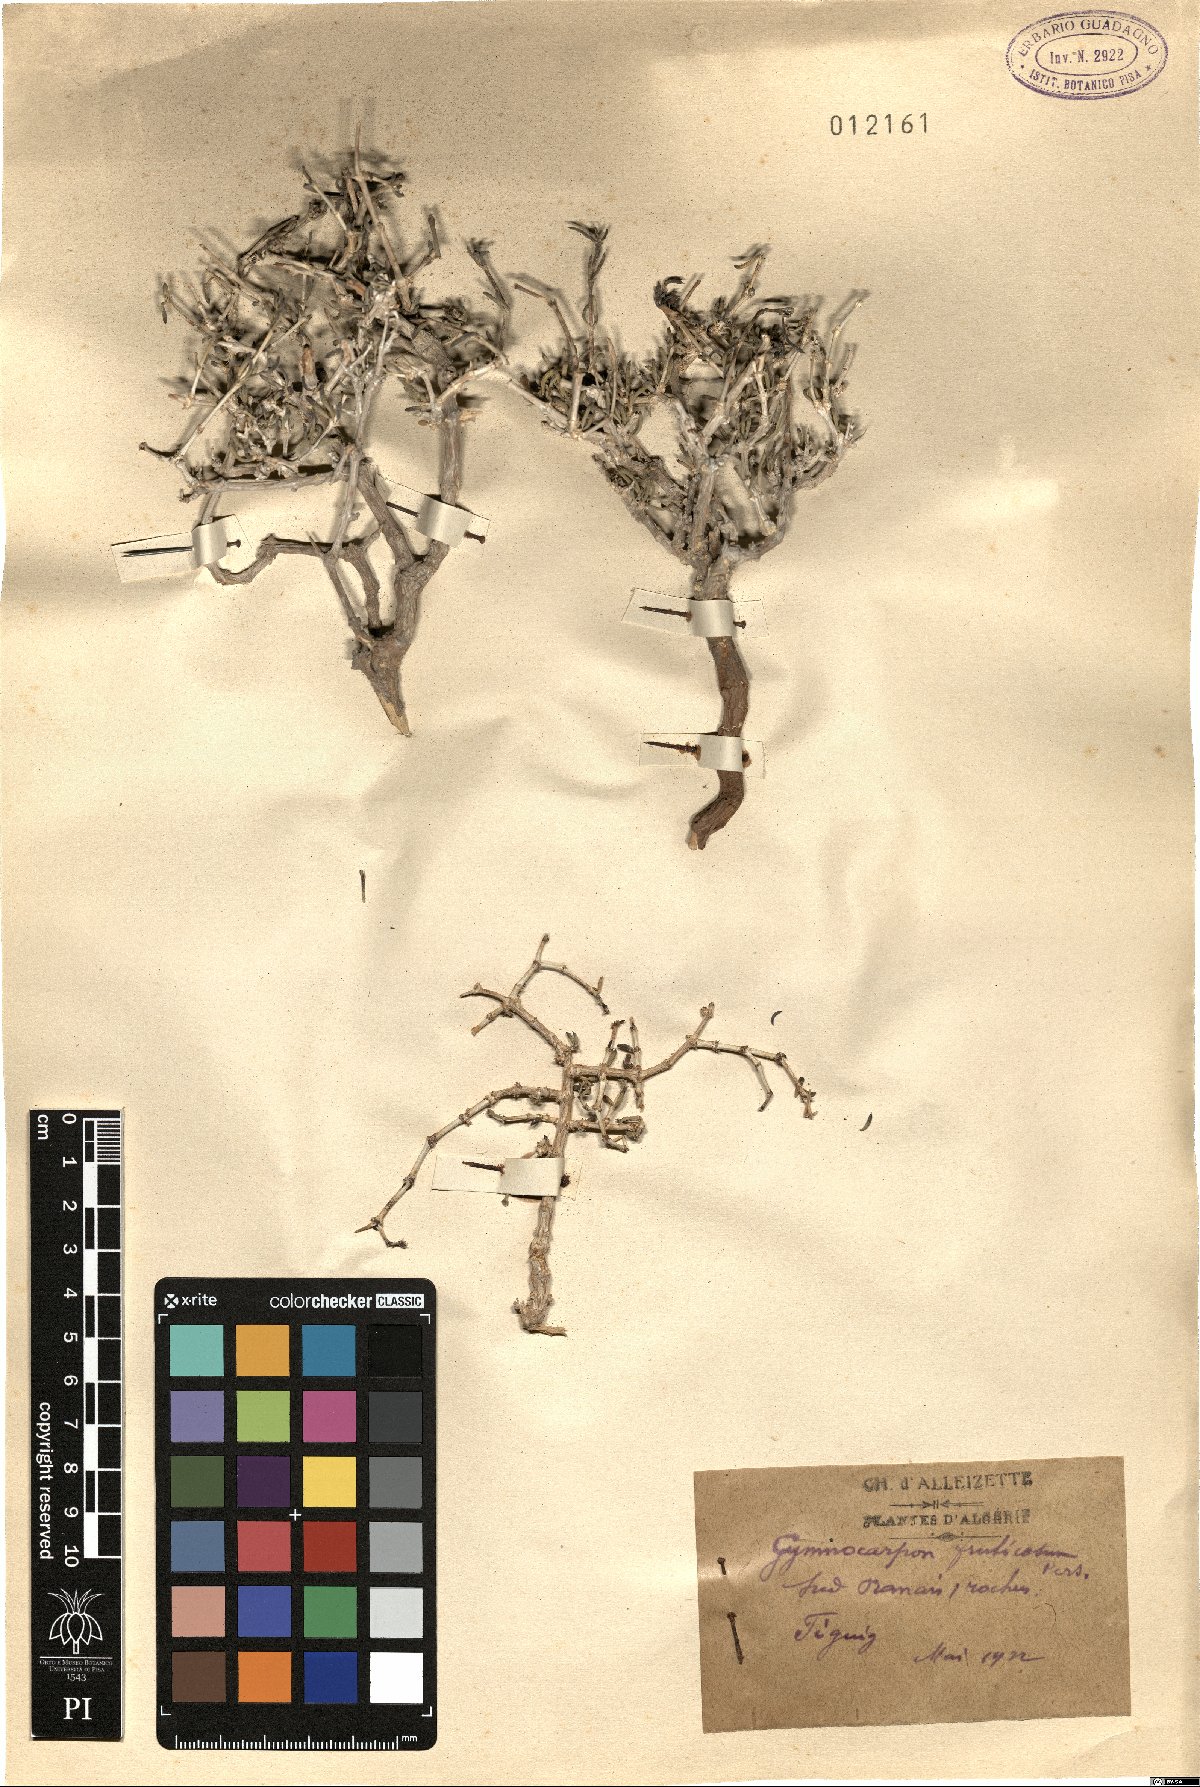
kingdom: Plantae
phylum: Tracheophyta
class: Magnoliopsida
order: Caryophyllales
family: Caryophyllaceae
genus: Gymnocarpos
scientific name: Gymnocarpos decander
